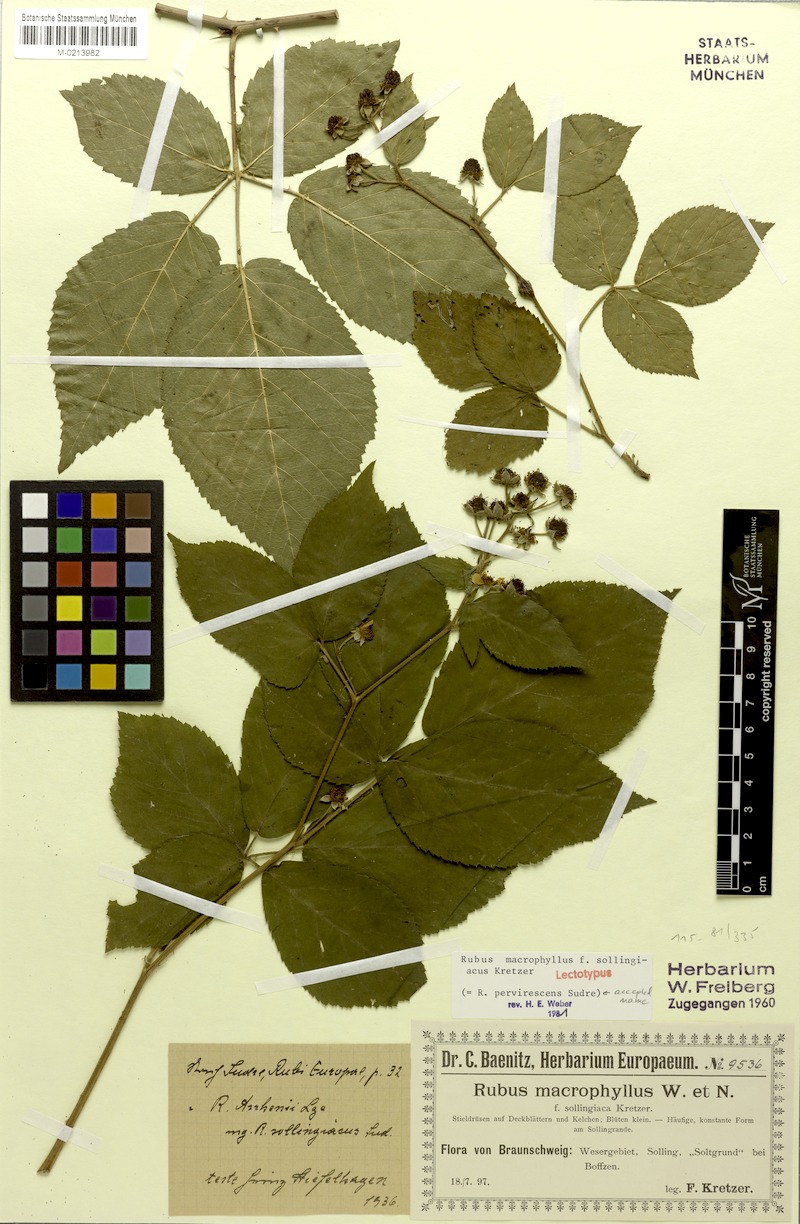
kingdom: Plantae
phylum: Tracheophyta
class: Magnoliopsida
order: Rosales
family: Rosaceae
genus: Rubus
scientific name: Rubus pervirescens
